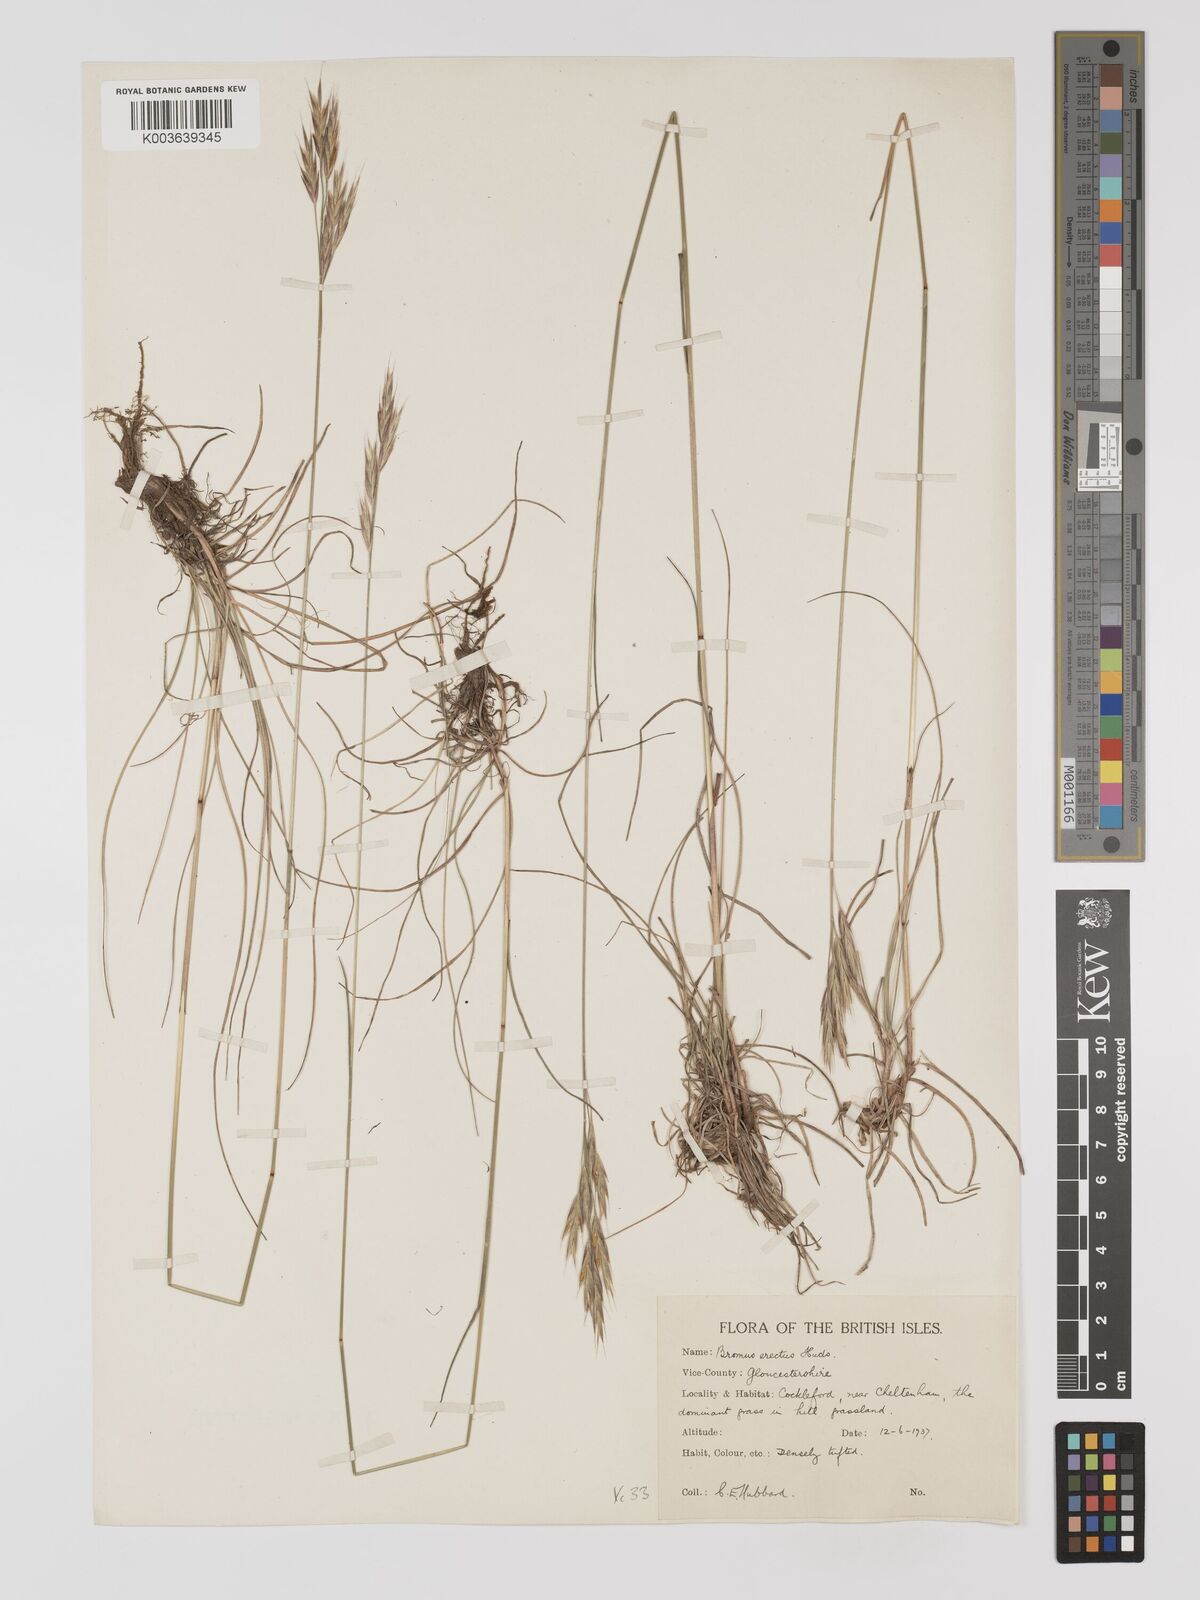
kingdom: Plantae
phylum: Tracheophyta
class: Liliopsida
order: Poales
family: Poaceae
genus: Bromus
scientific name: Bromus erectus
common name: Erect brome
